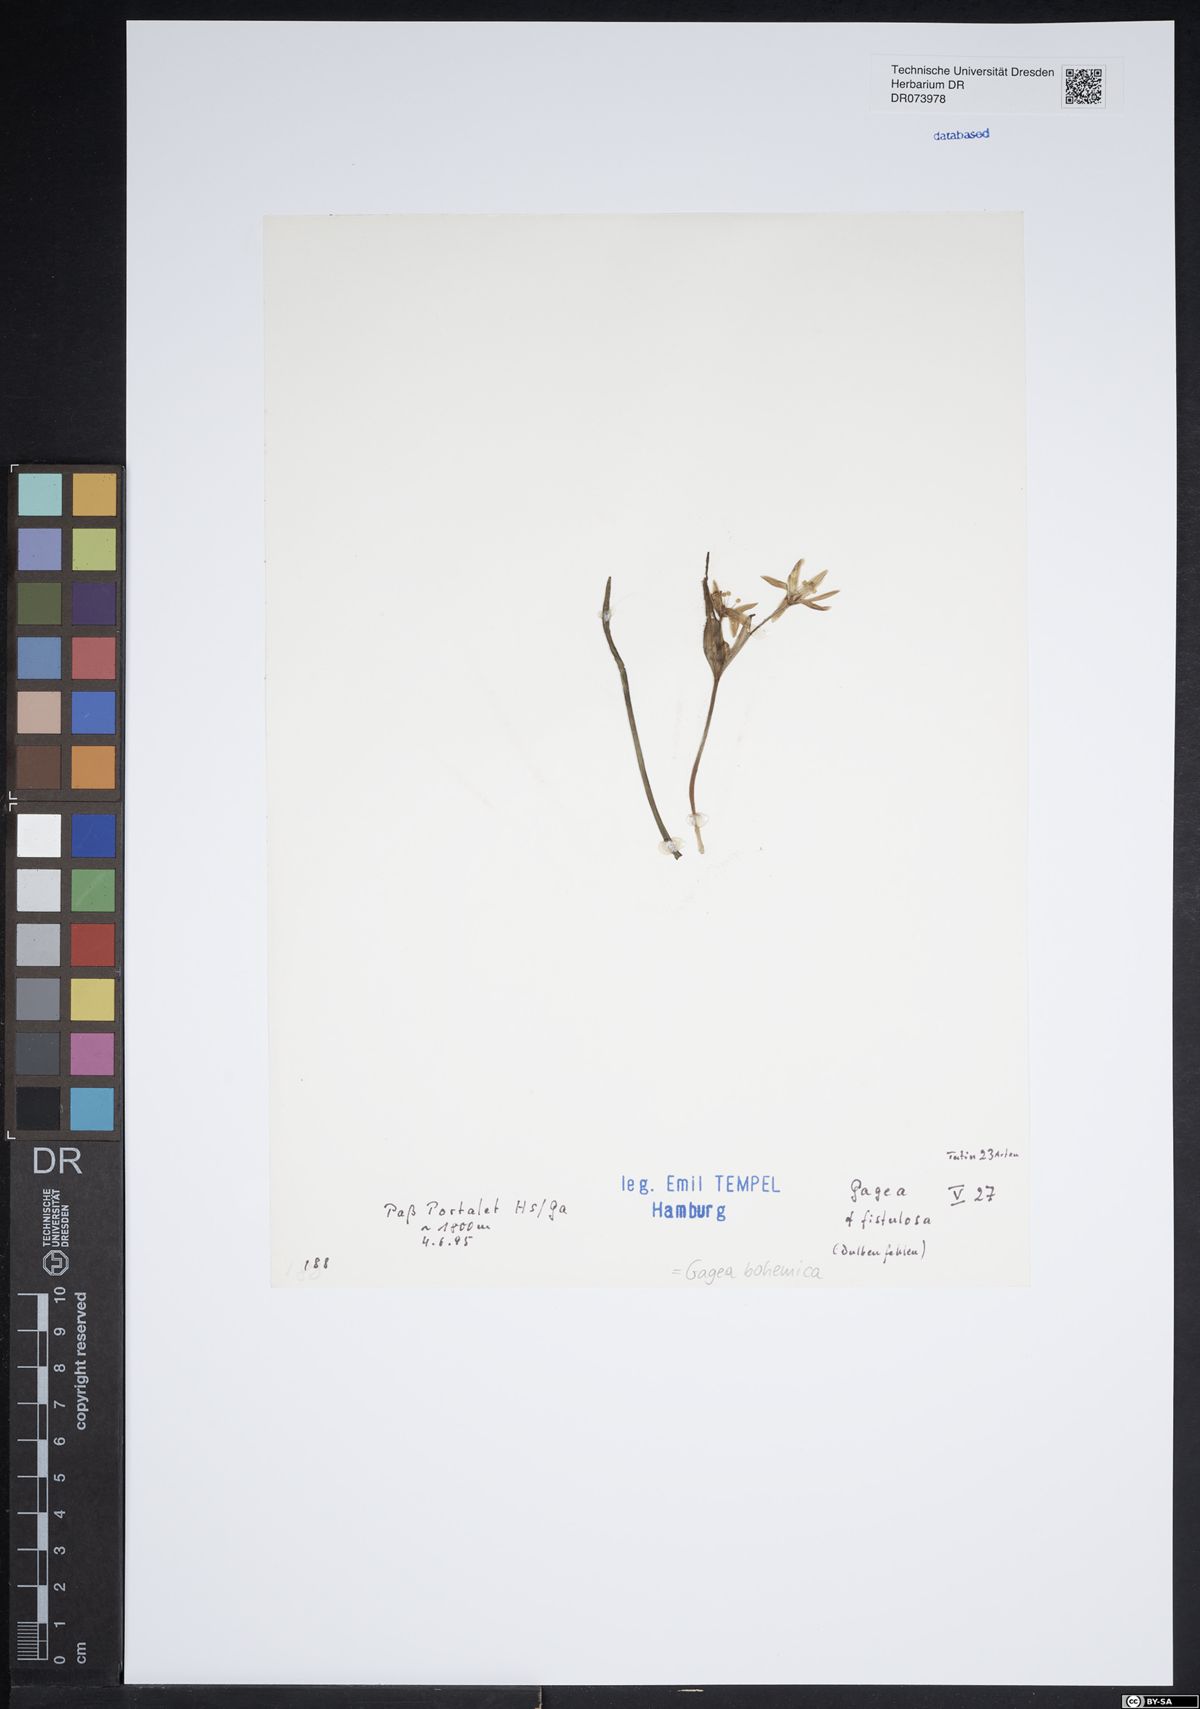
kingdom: Plantae
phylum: Tracheophyta
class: Liliopsida
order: Liliales
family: Liliaceae
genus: Gagea
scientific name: Gagea bohemica
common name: Early star-of-bethlehem
